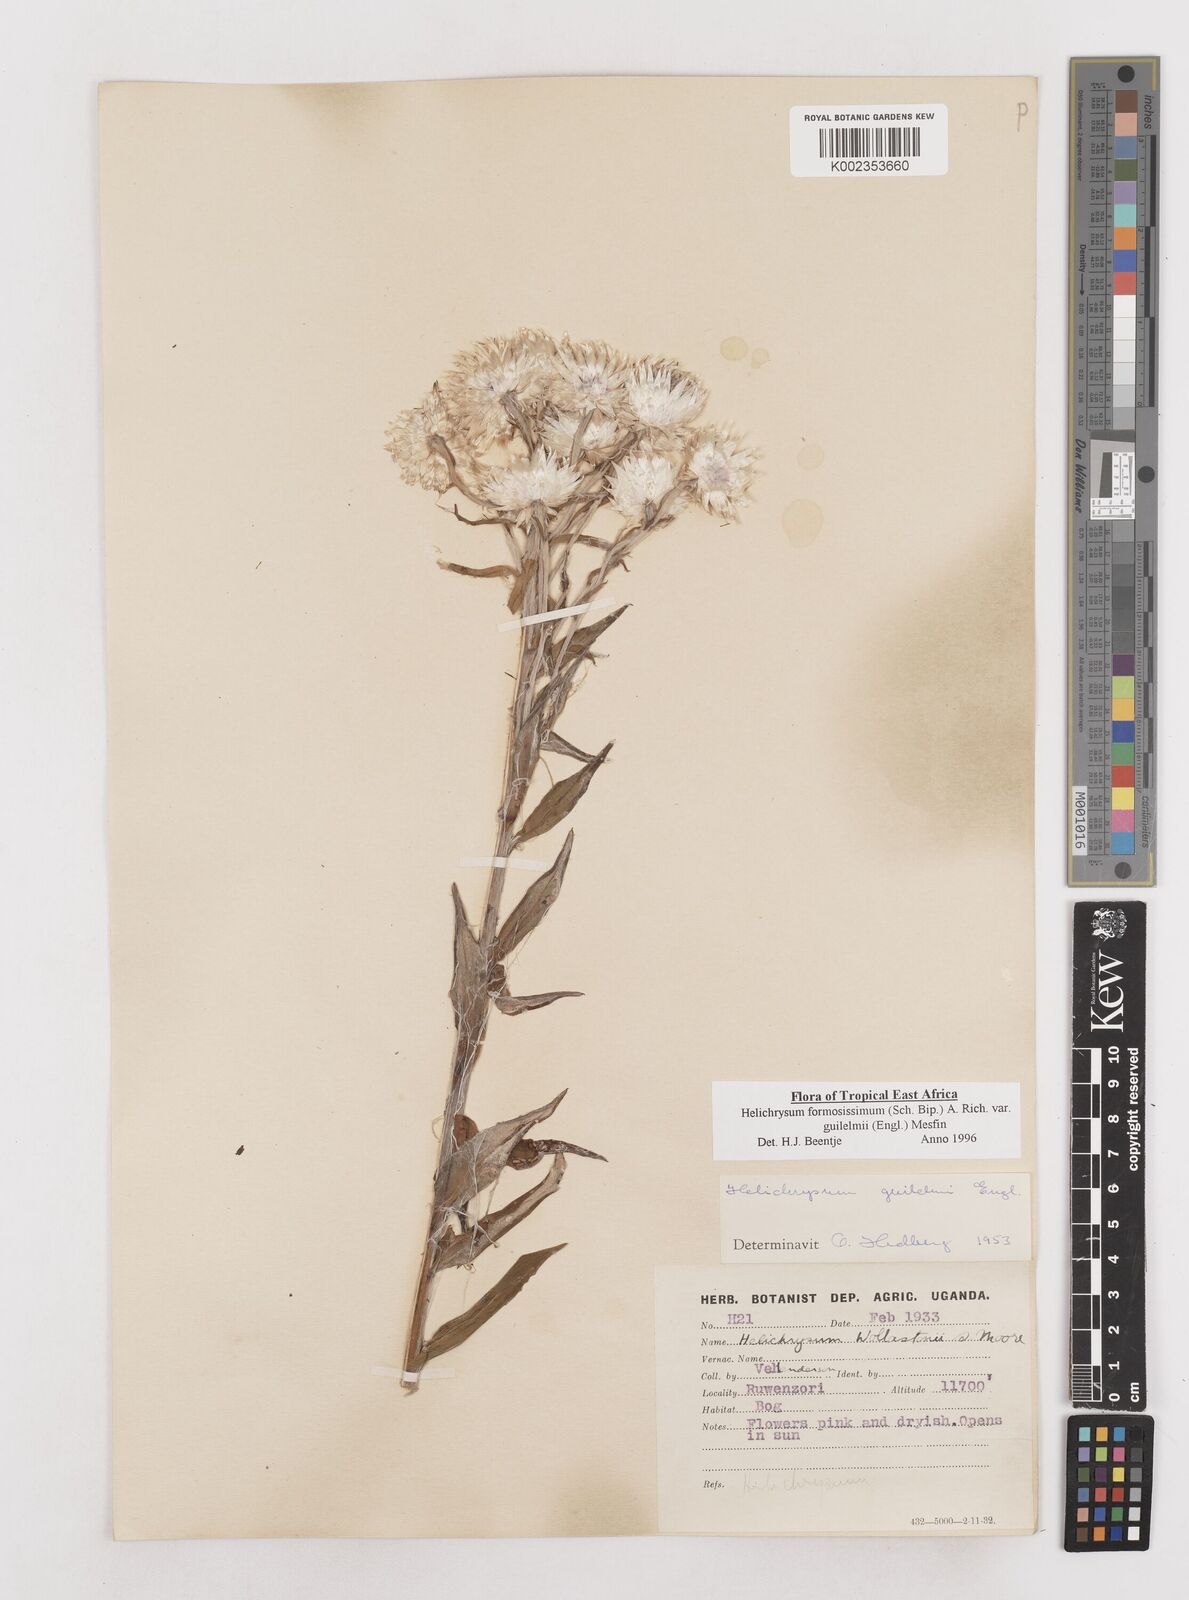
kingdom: Plantae
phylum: Tracheophyta
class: Magnoliopsida
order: Asterales
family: Asteraceae
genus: Helichrysum
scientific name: Helichrysum formosissimum
